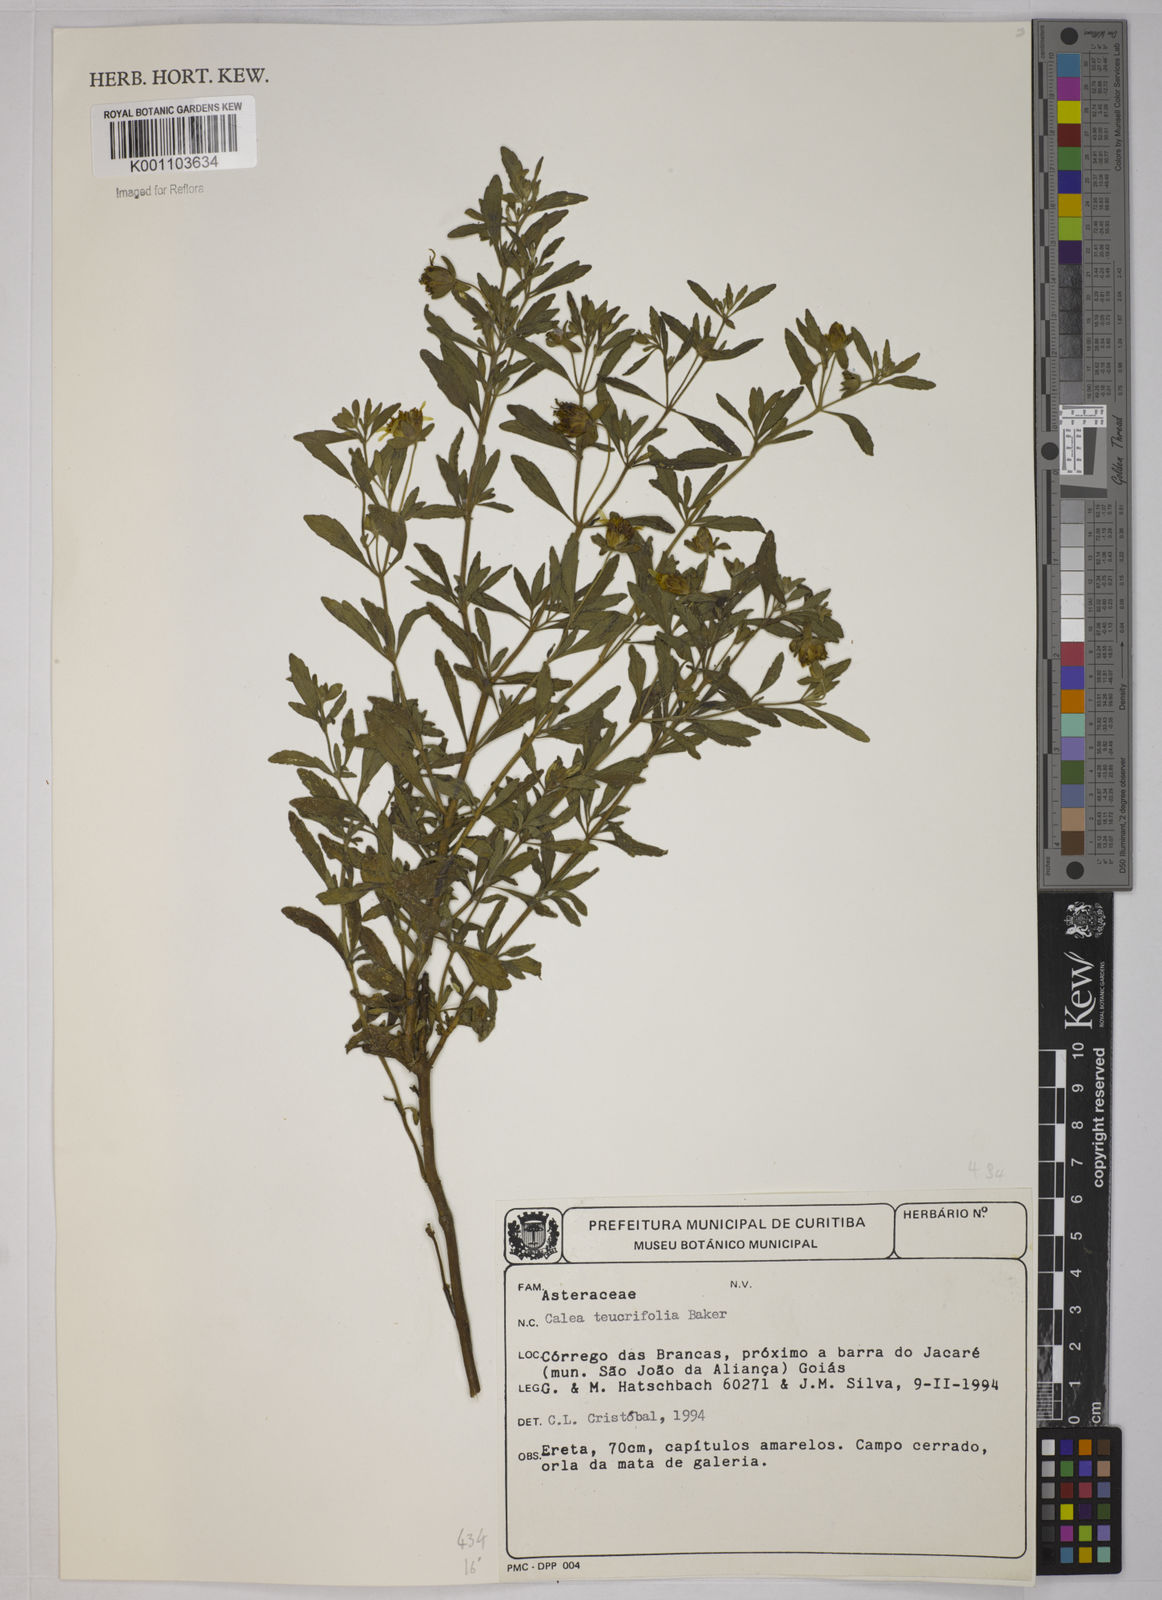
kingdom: Plantae
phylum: Tracheophyta
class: Magnoliopsida
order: Asterales
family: Asteraceae
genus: Calea
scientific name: Calea teucriifolia
